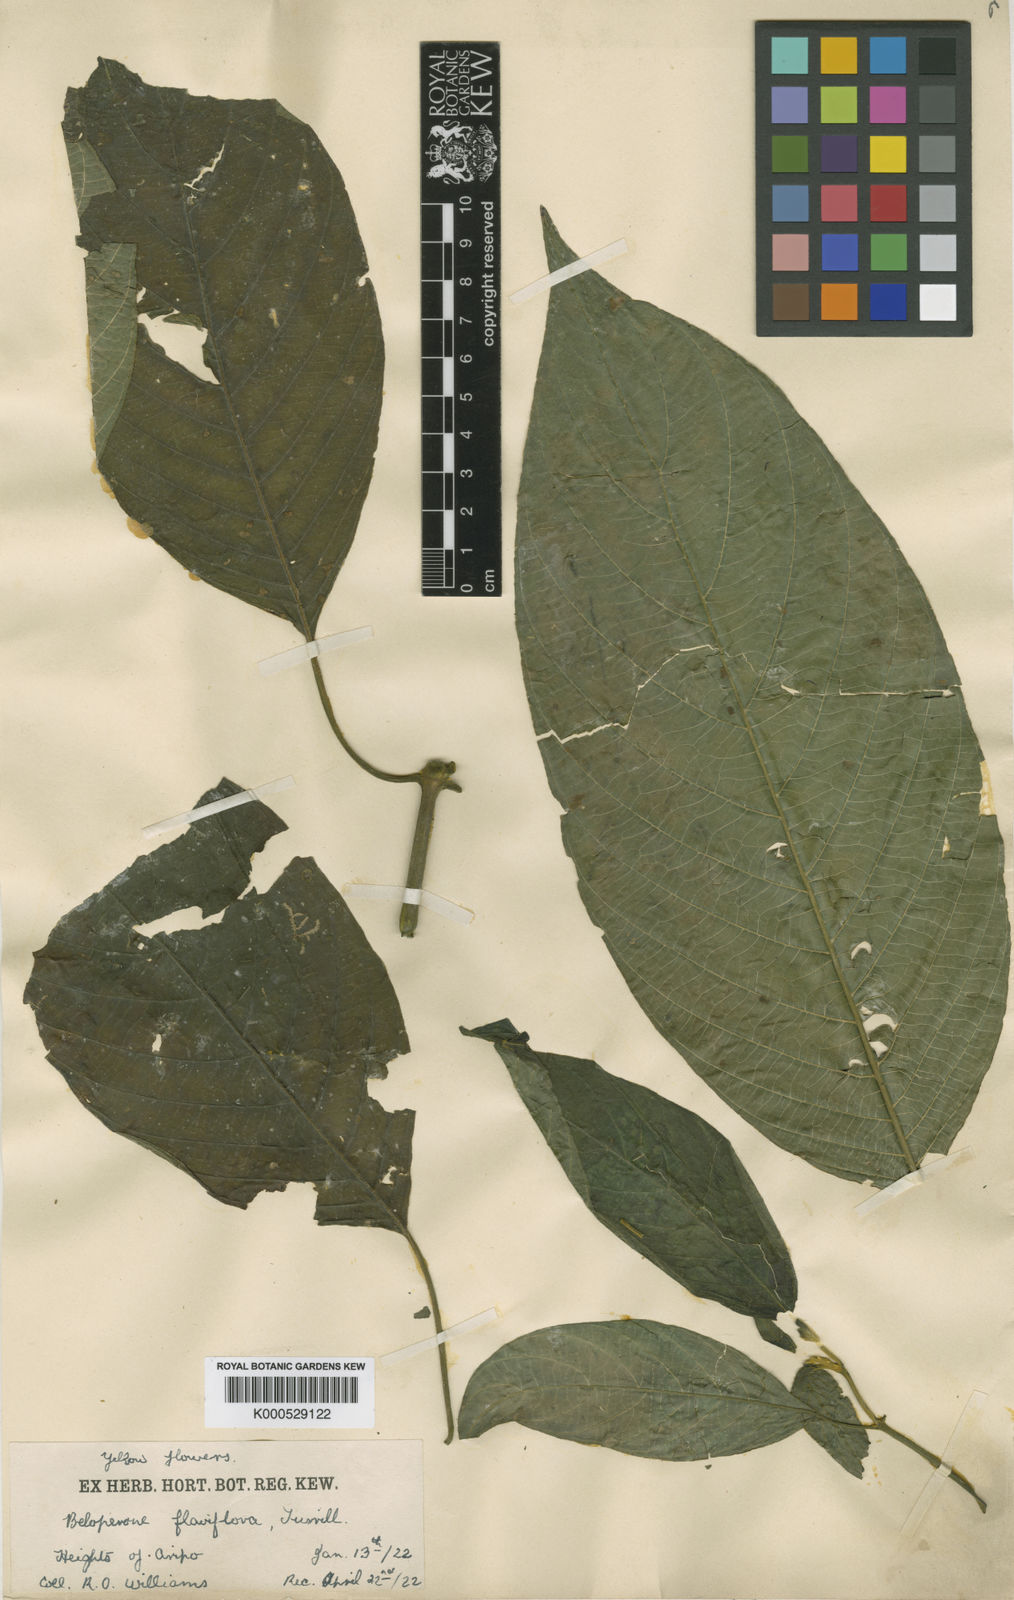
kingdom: Plantae
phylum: Tracheophyta
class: Magnoliopsida
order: Lamiales
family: Acanthaceae
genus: Justicia
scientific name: Justicia flaviflora
